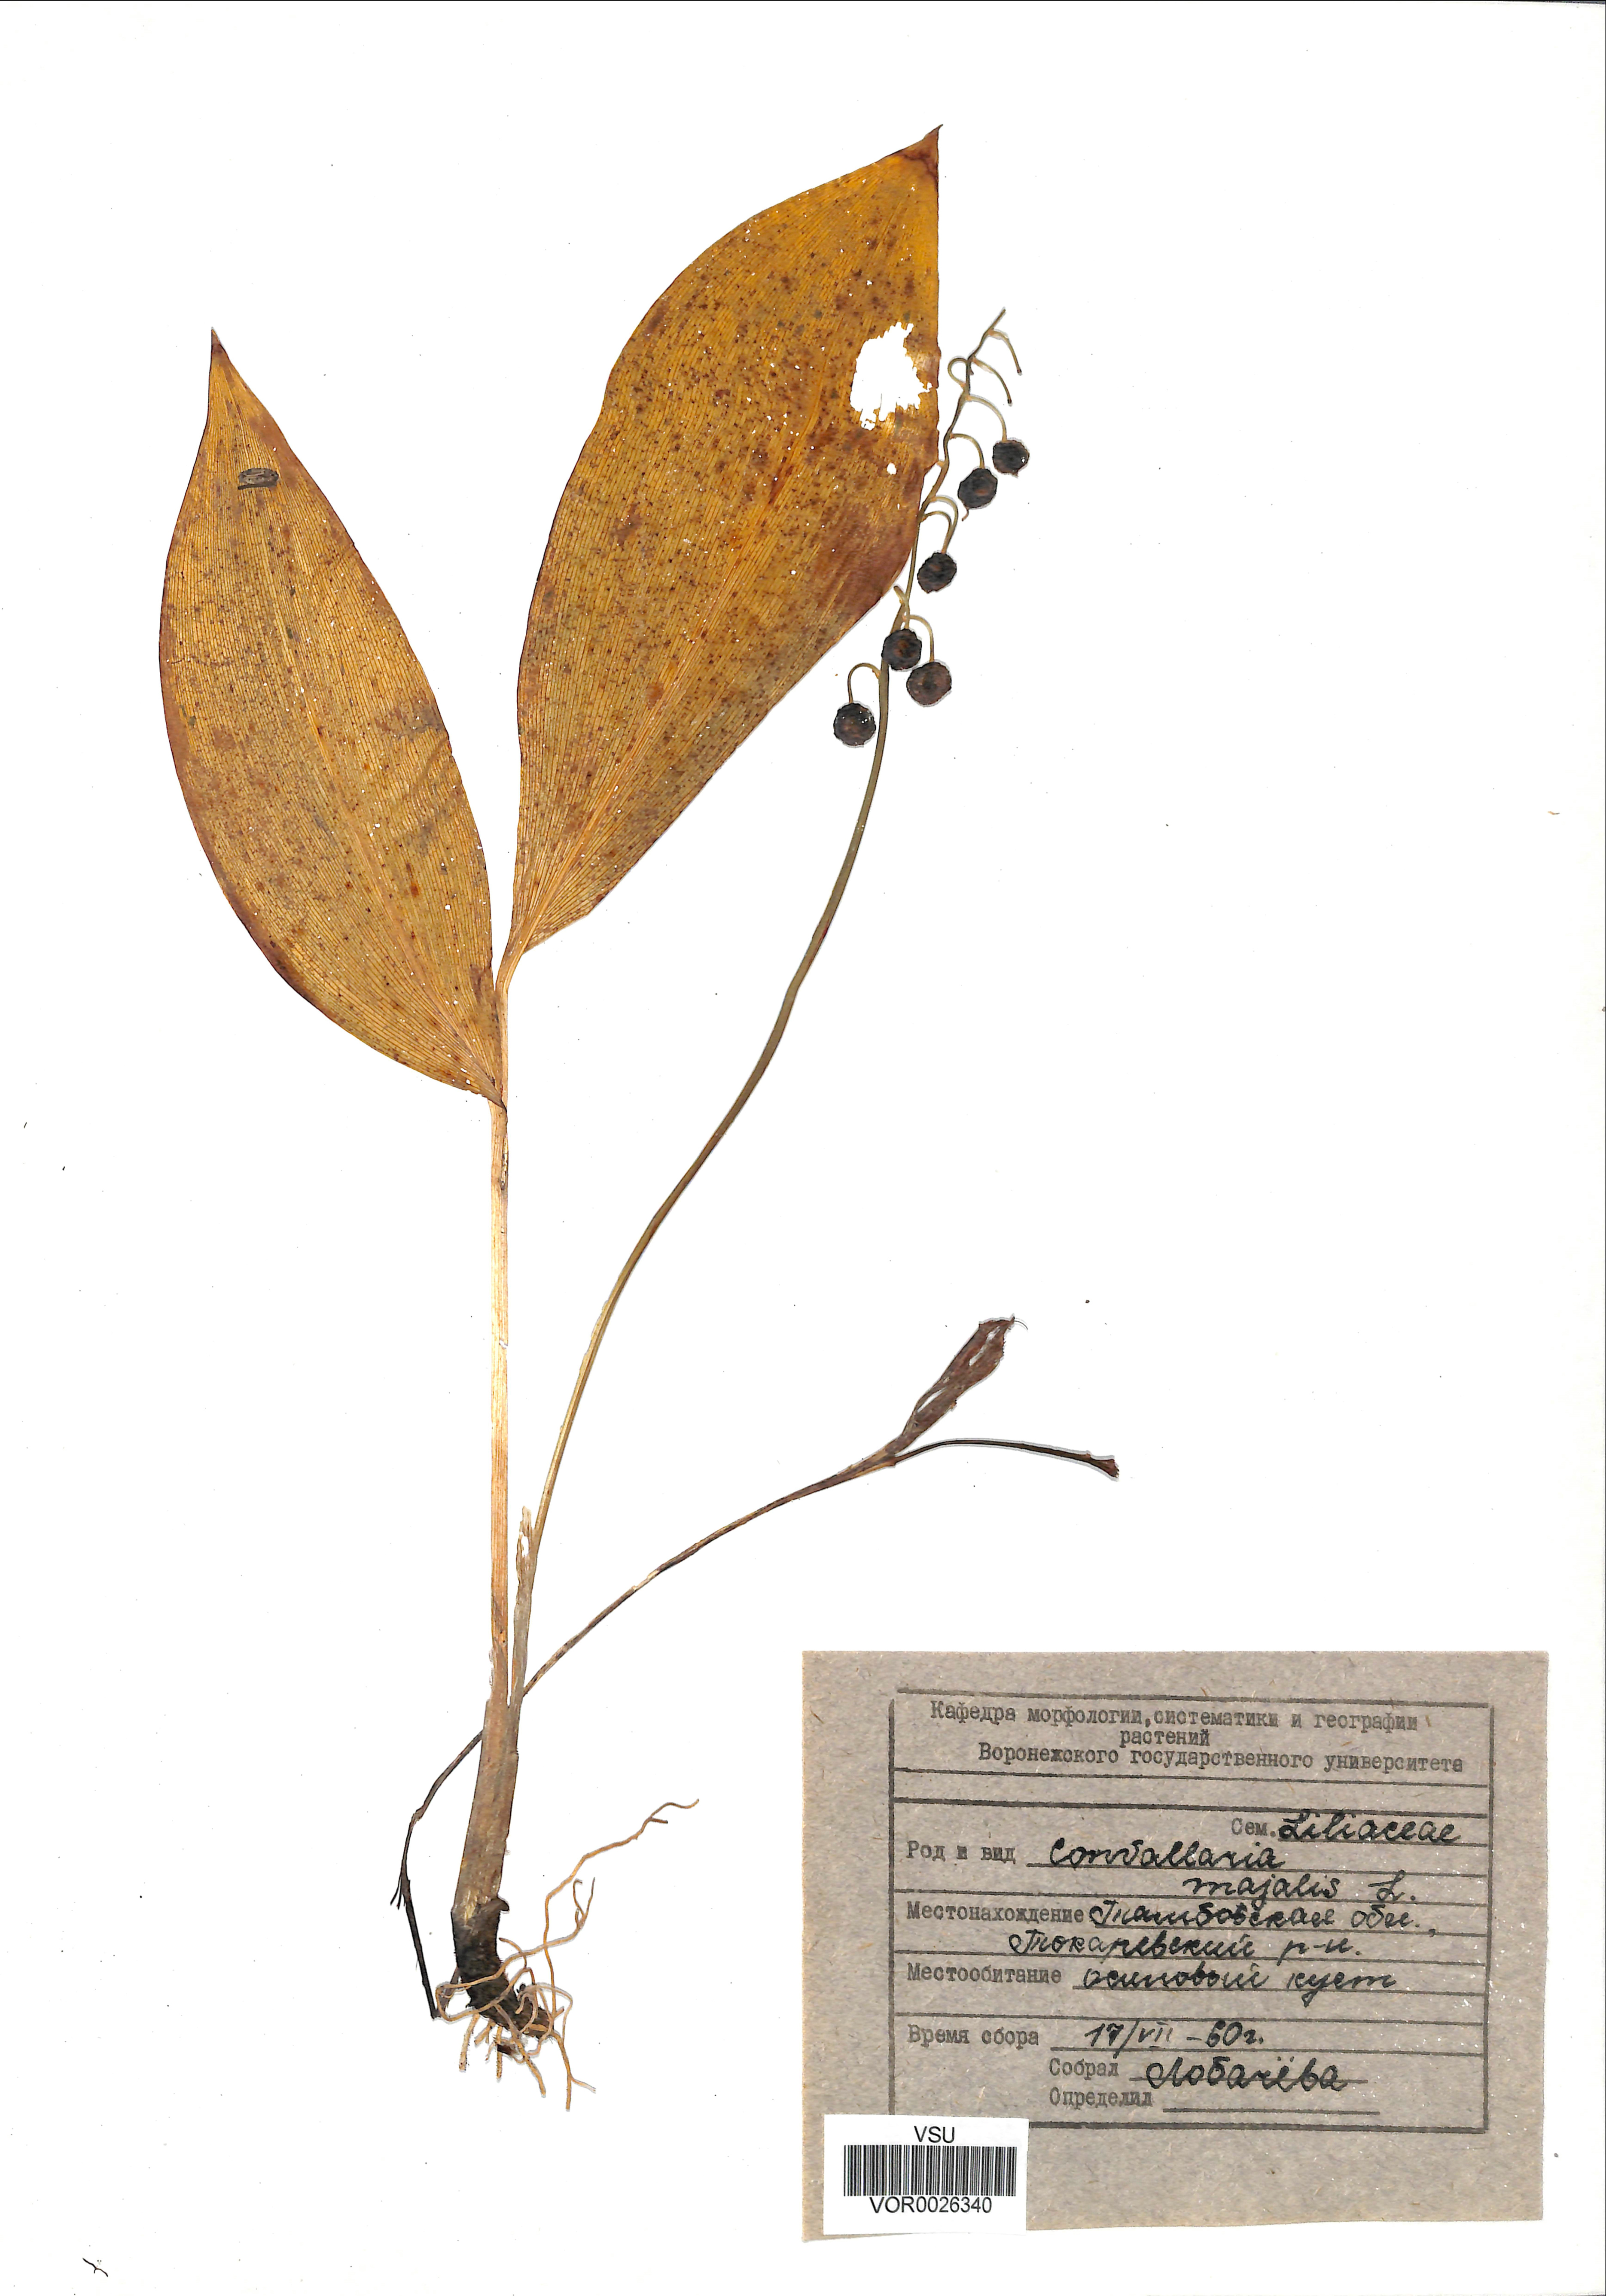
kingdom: Plantae
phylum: Tracheophyta
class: Liliopsida
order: Asparagales
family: Asparagaceae
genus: Convallaria
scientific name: Convallaria majalis
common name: Lily-of-the-valley
